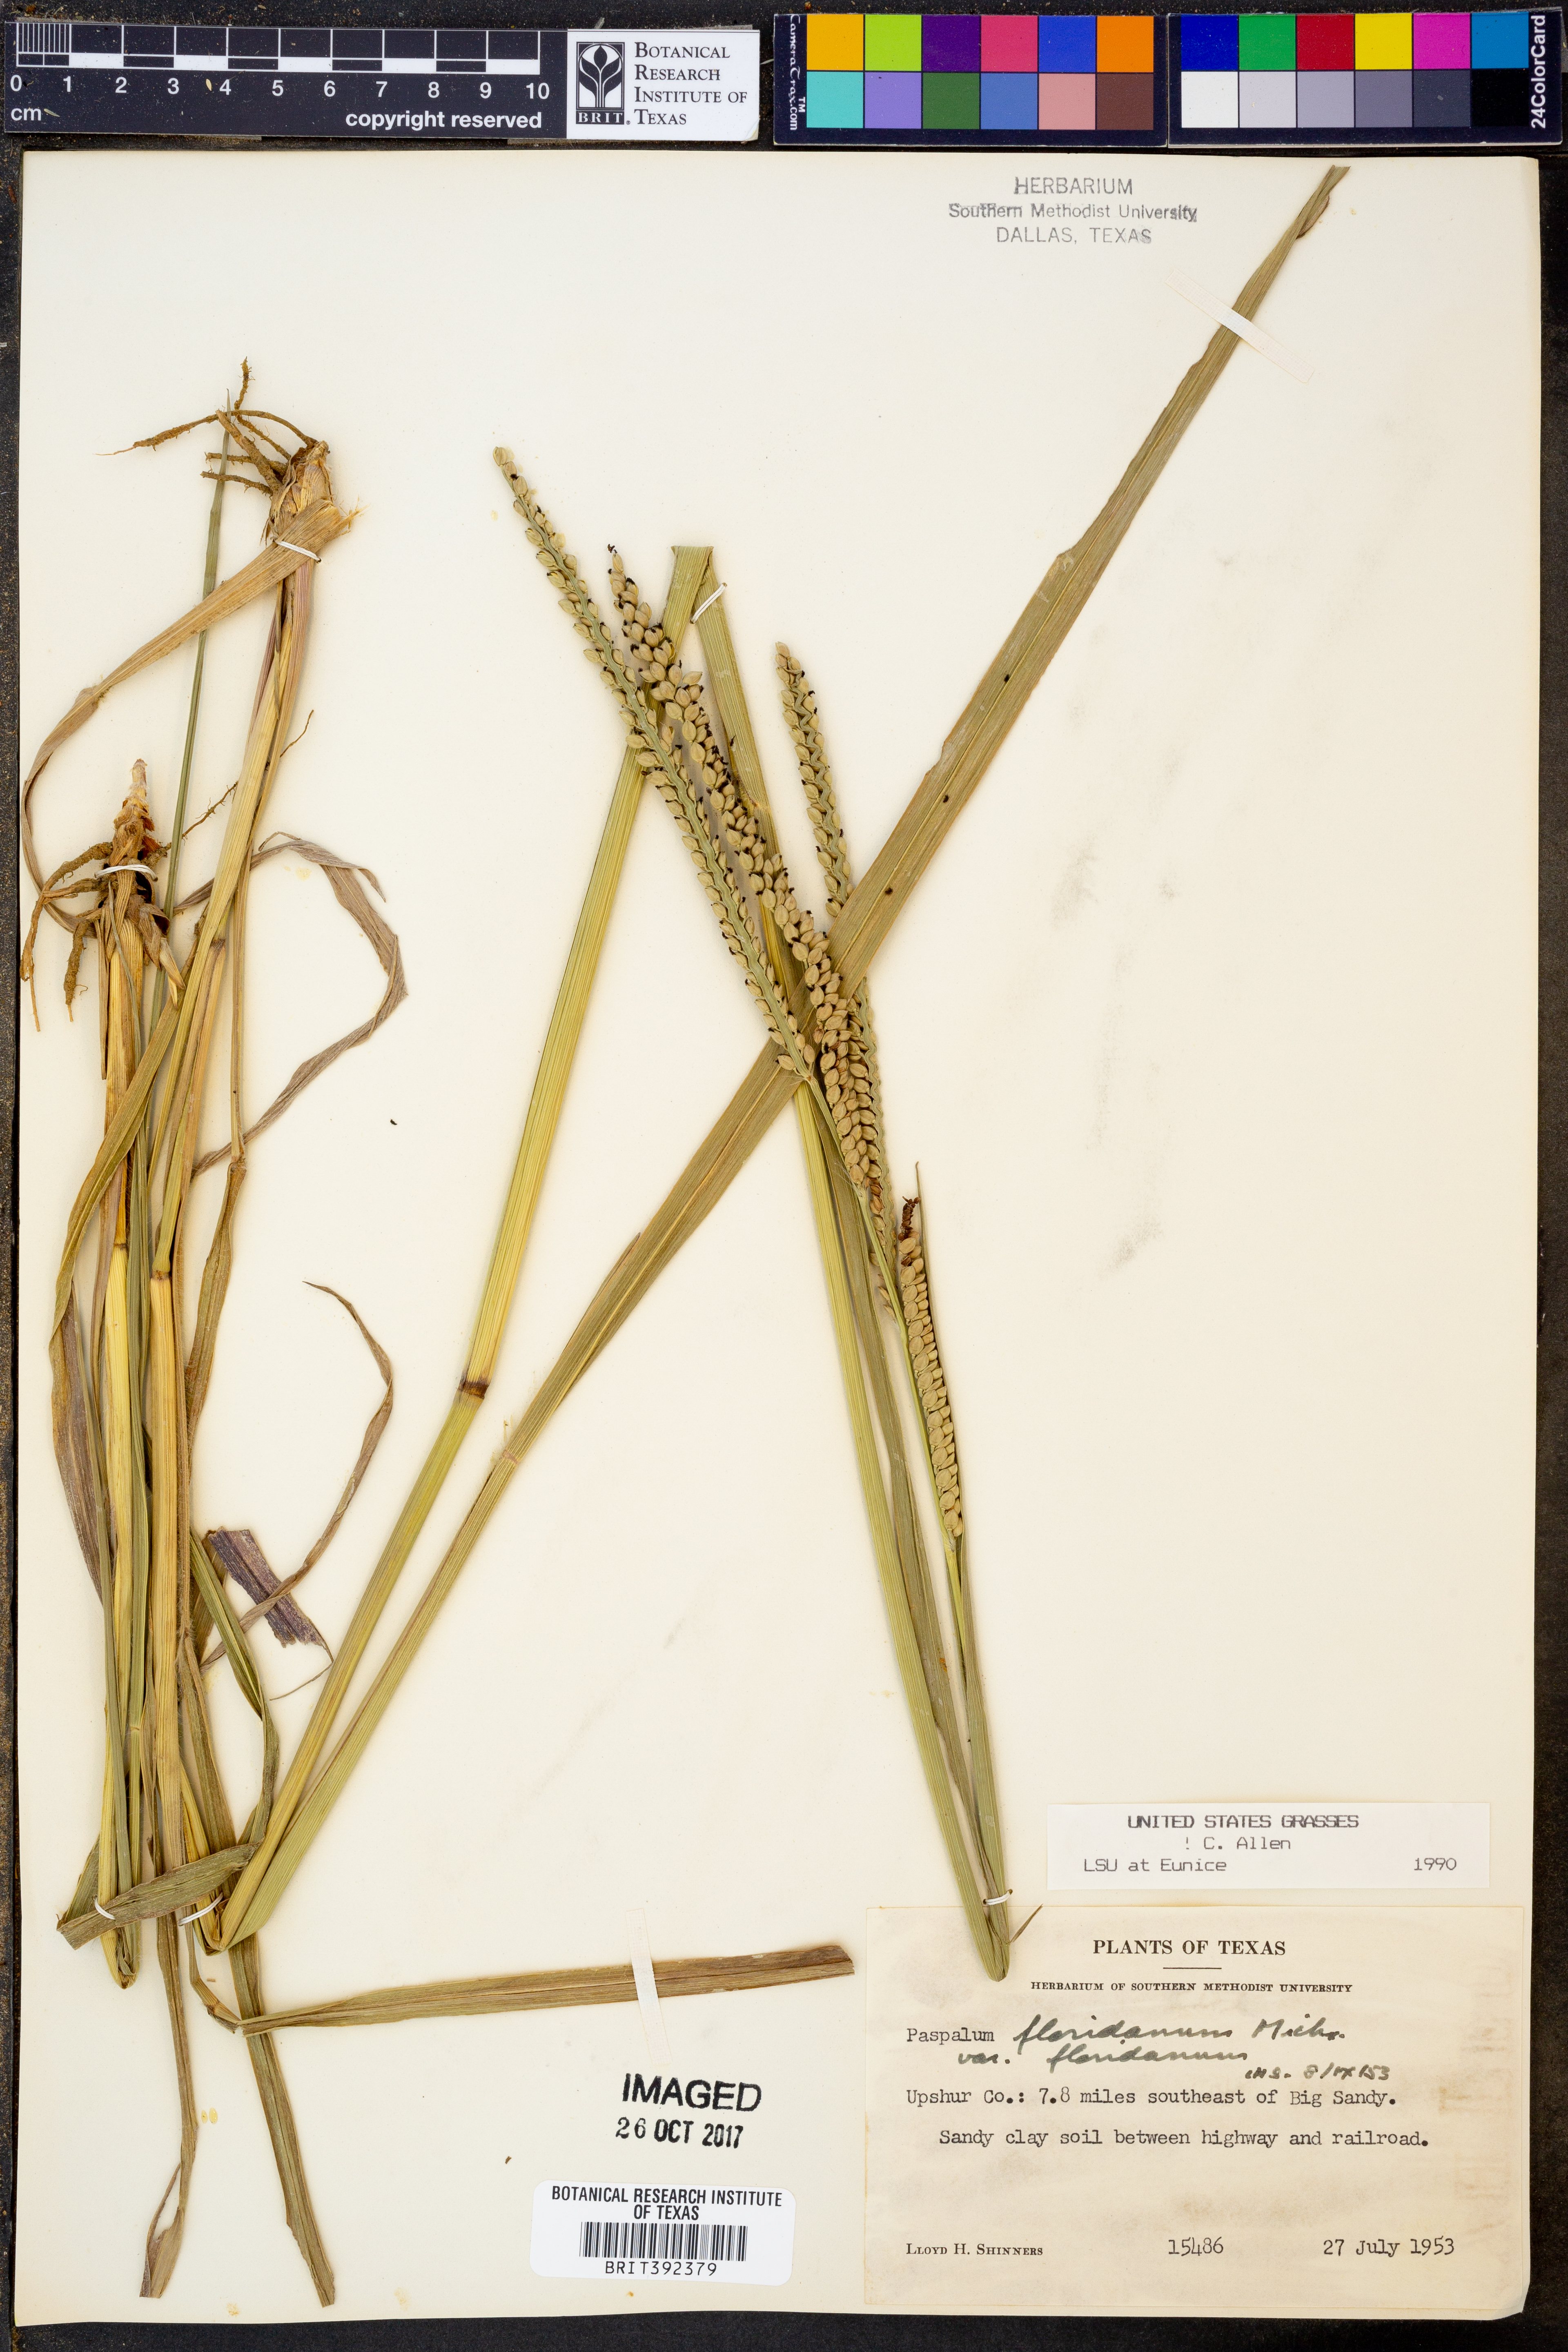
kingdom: Plantae
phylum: Tracheophyta
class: Liliopsida
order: Poales
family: Poaceae
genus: Paspalum
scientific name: Paspalum floridanum
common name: Florida paspalum
